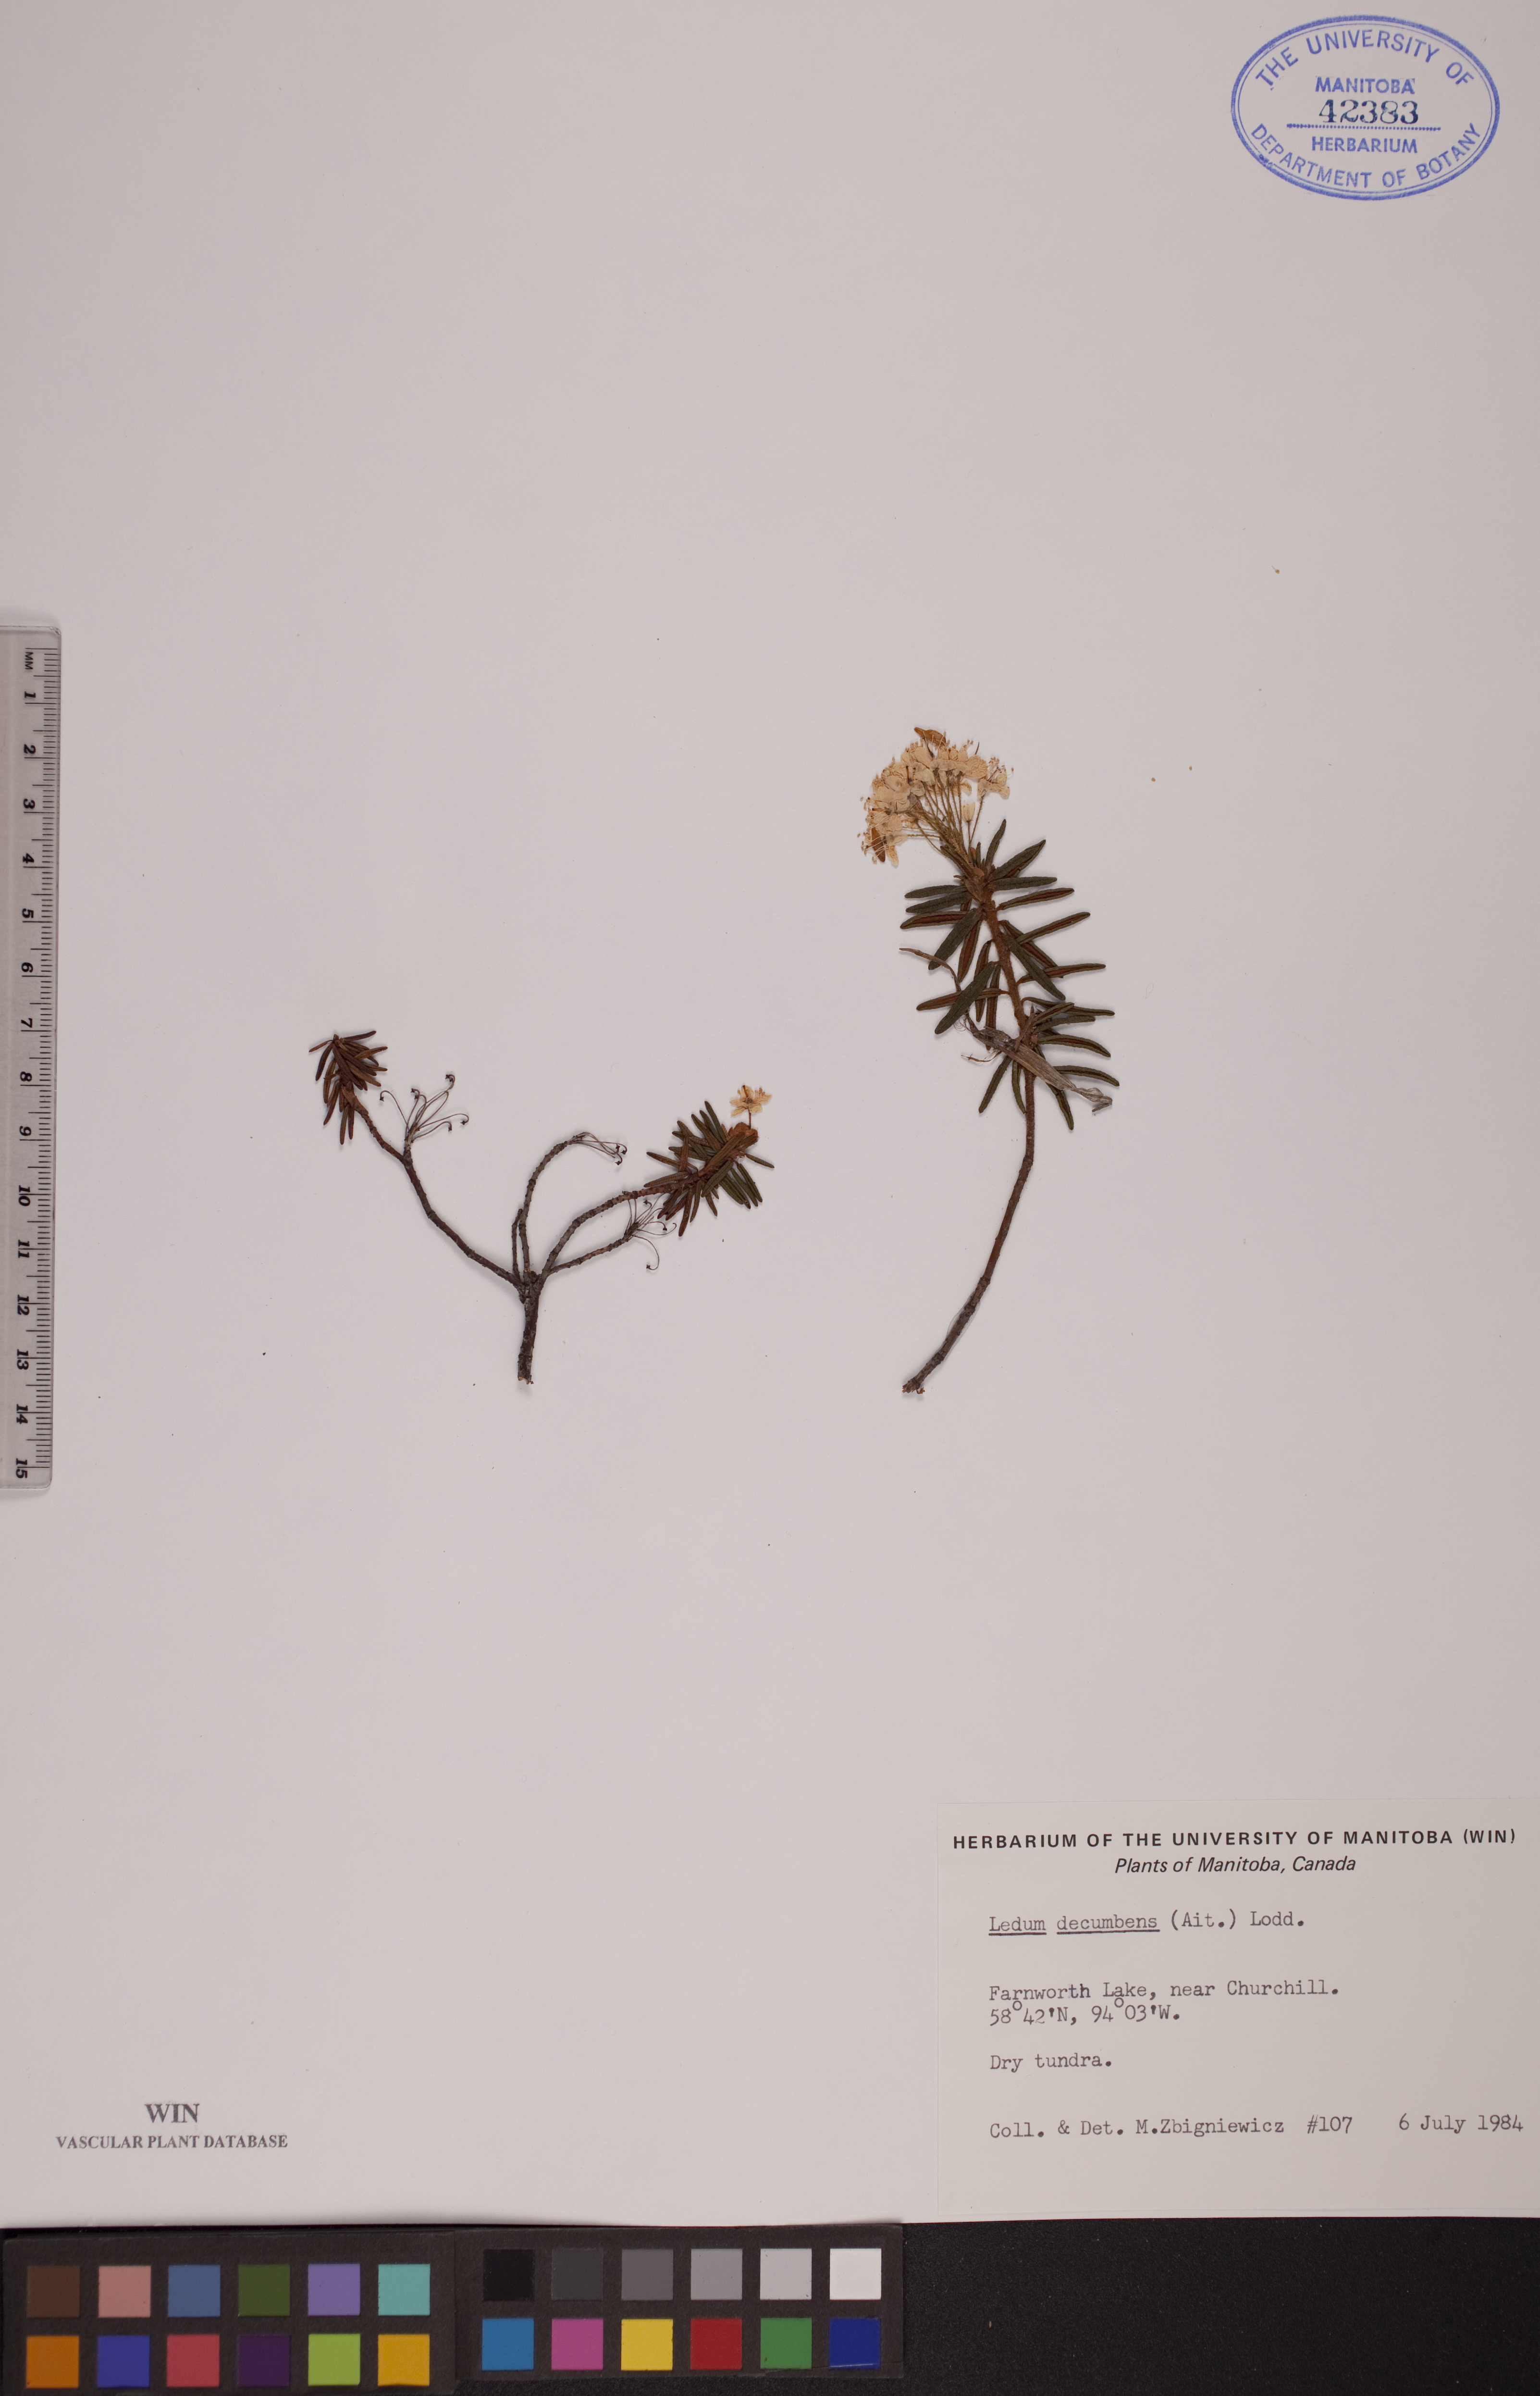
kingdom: Plantae
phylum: Tracheophyta
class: Magnoliopsida
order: Ericales
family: Ericaceae
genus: Rhododendron
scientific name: Rhododendron tomentosum
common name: Marsh labrador tea
